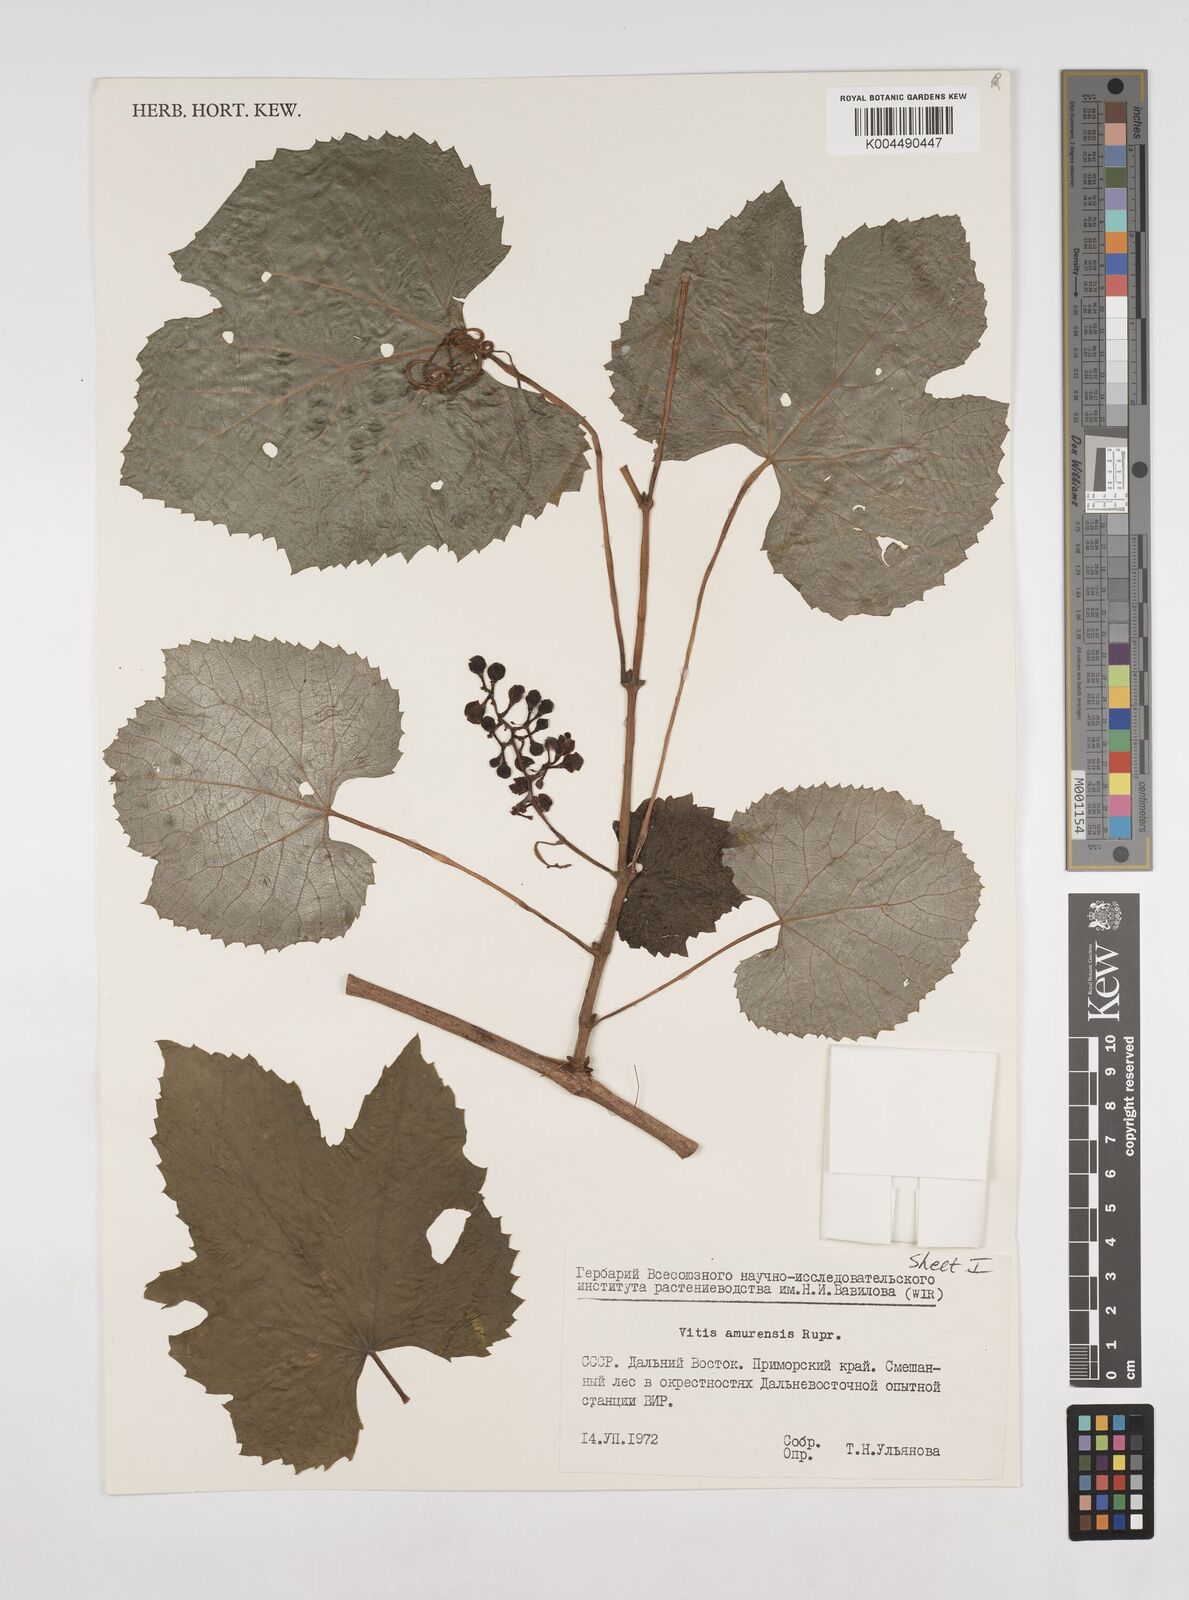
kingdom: Plantae
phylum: Tracheophyta
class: Magnoliopsida
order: Vitales
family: Vitaceae
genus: Vitis
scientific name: Vitis vinifera
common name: Grape-vine
